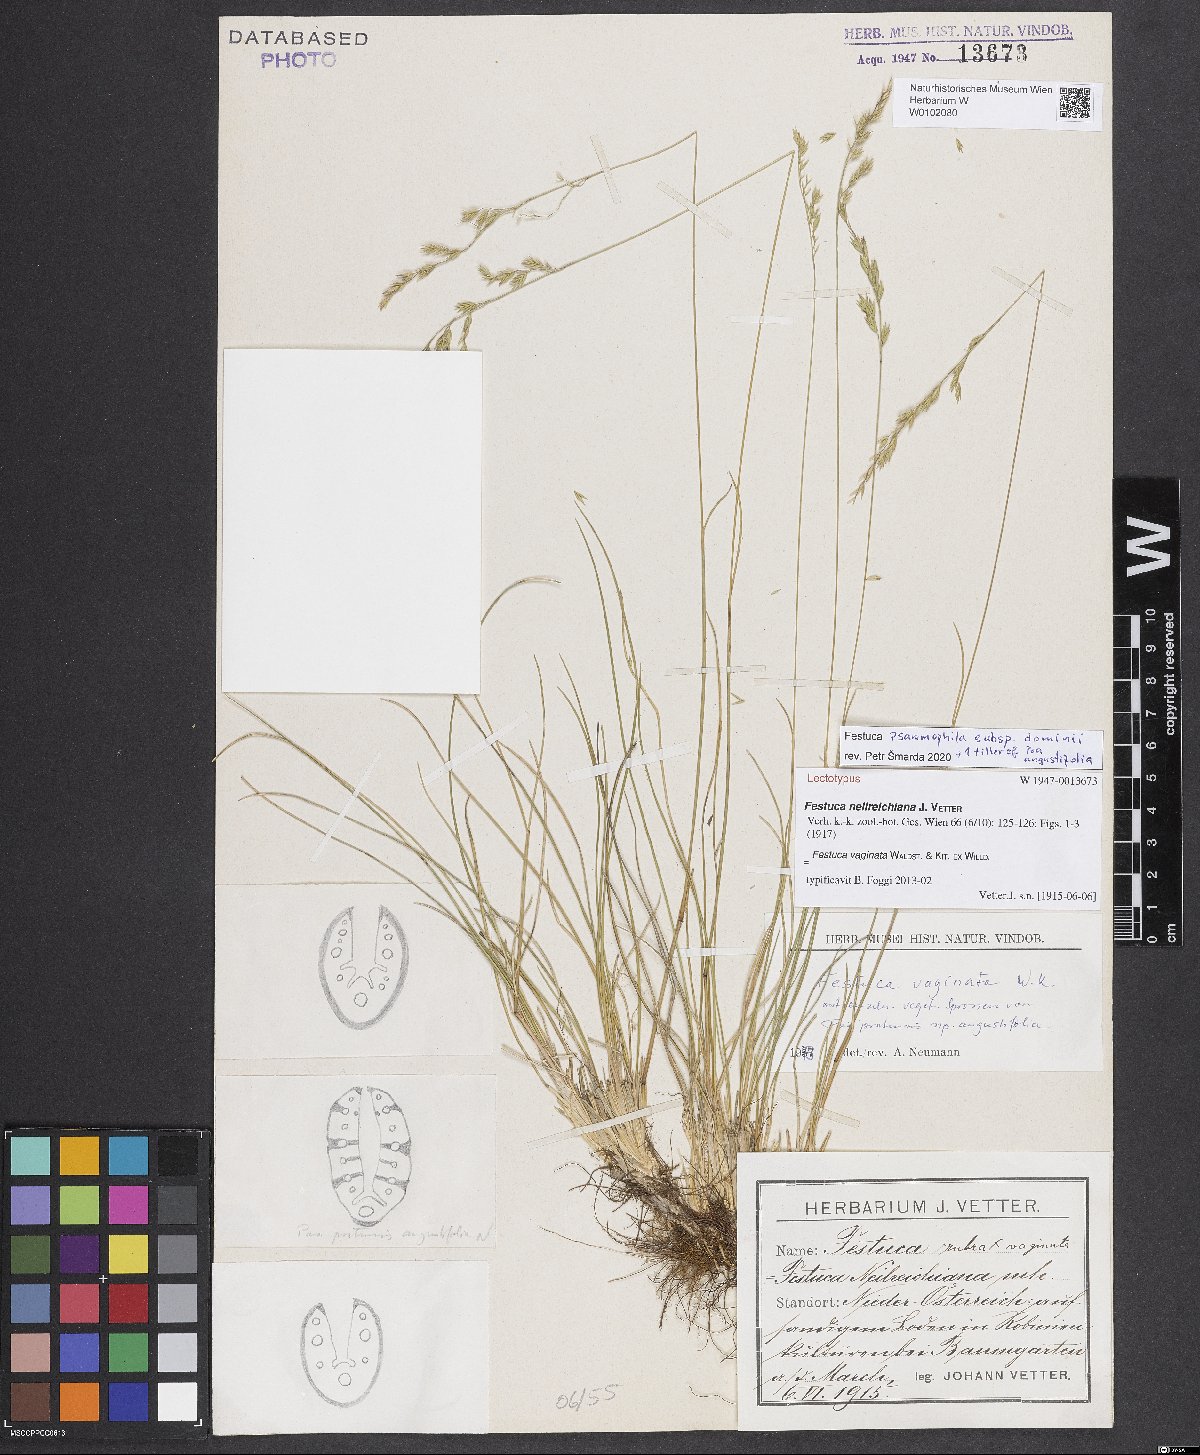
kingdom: Plantae
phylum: Tracheophyta
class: Liliopsida
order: Poales
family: Poaceae
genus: Festuca
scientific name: Festuca vaginata
